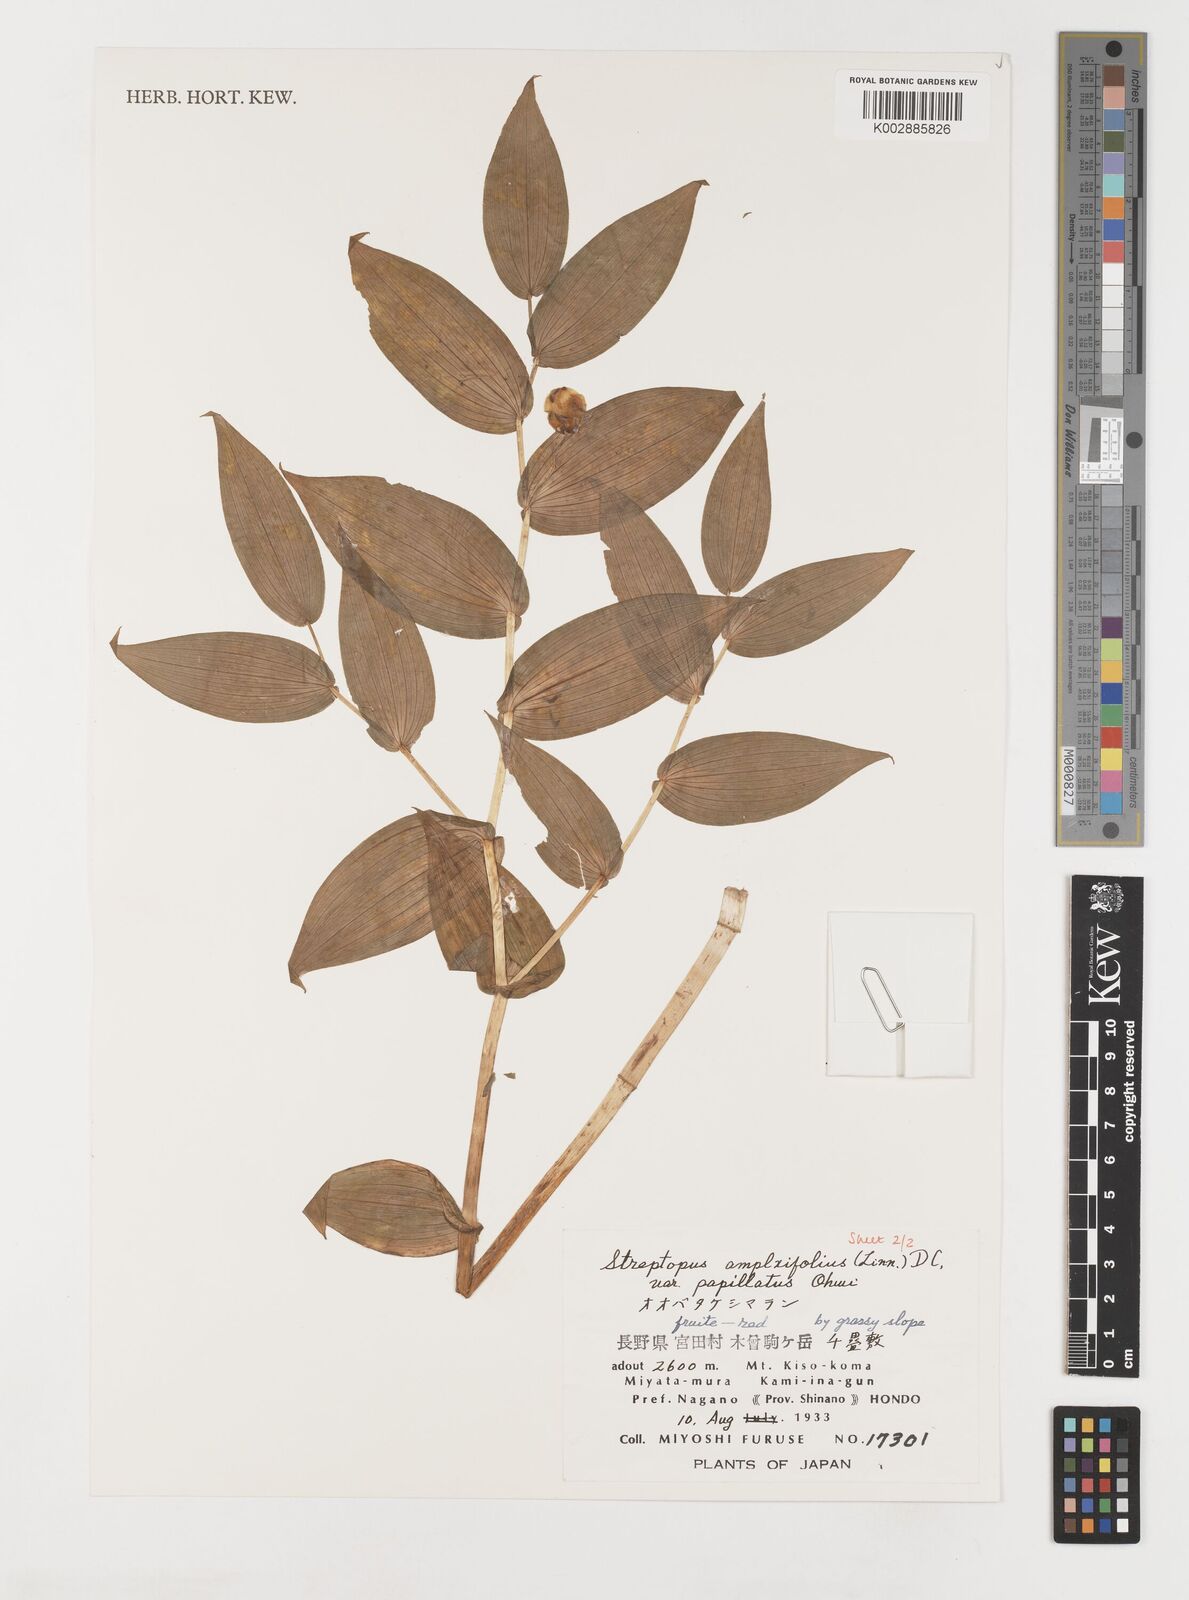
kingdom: Plantae
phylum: Tracheophyta
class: Liliopsida
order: Liliales
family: Liliaceae
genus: Streptopus
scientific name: Streptopus amplexifolius
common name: Clasp twisted stalk
